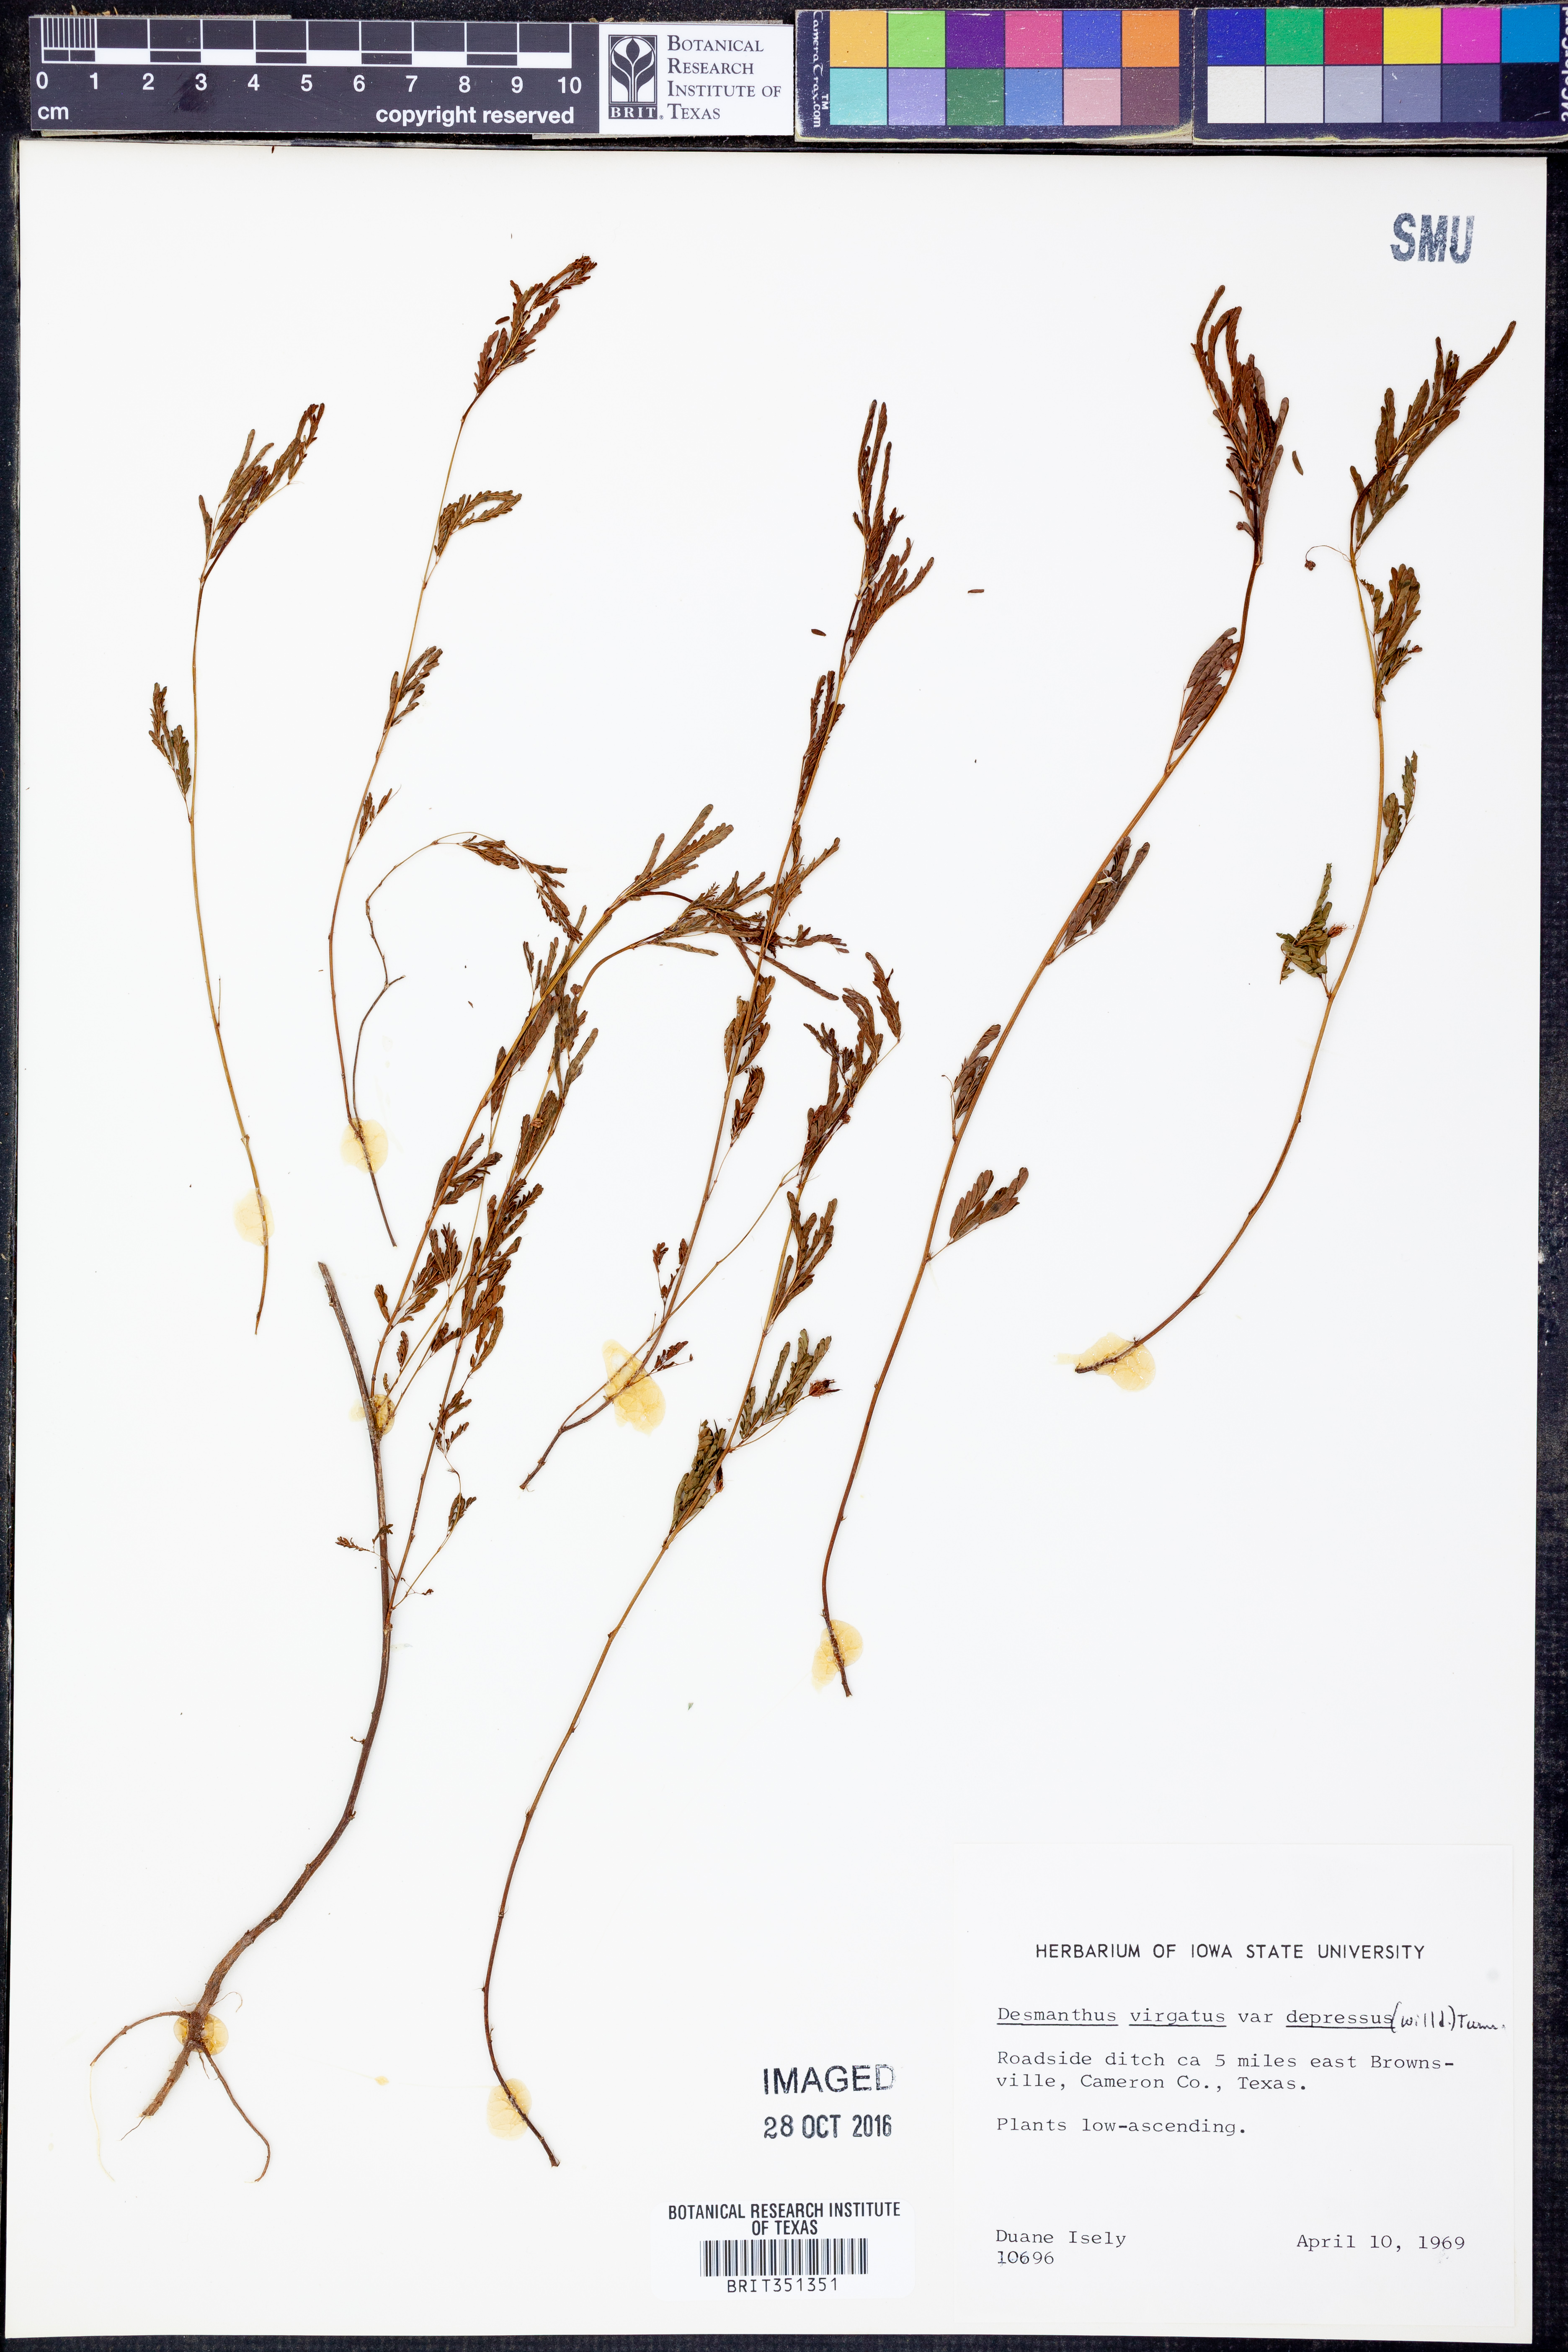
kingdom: Plantae
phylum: Tracheophyta
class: Magnoliopsida
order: Fabales
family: Fabaceae
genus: Desmanthus
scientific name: Desmanthus virgatus
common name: Wild tantan
